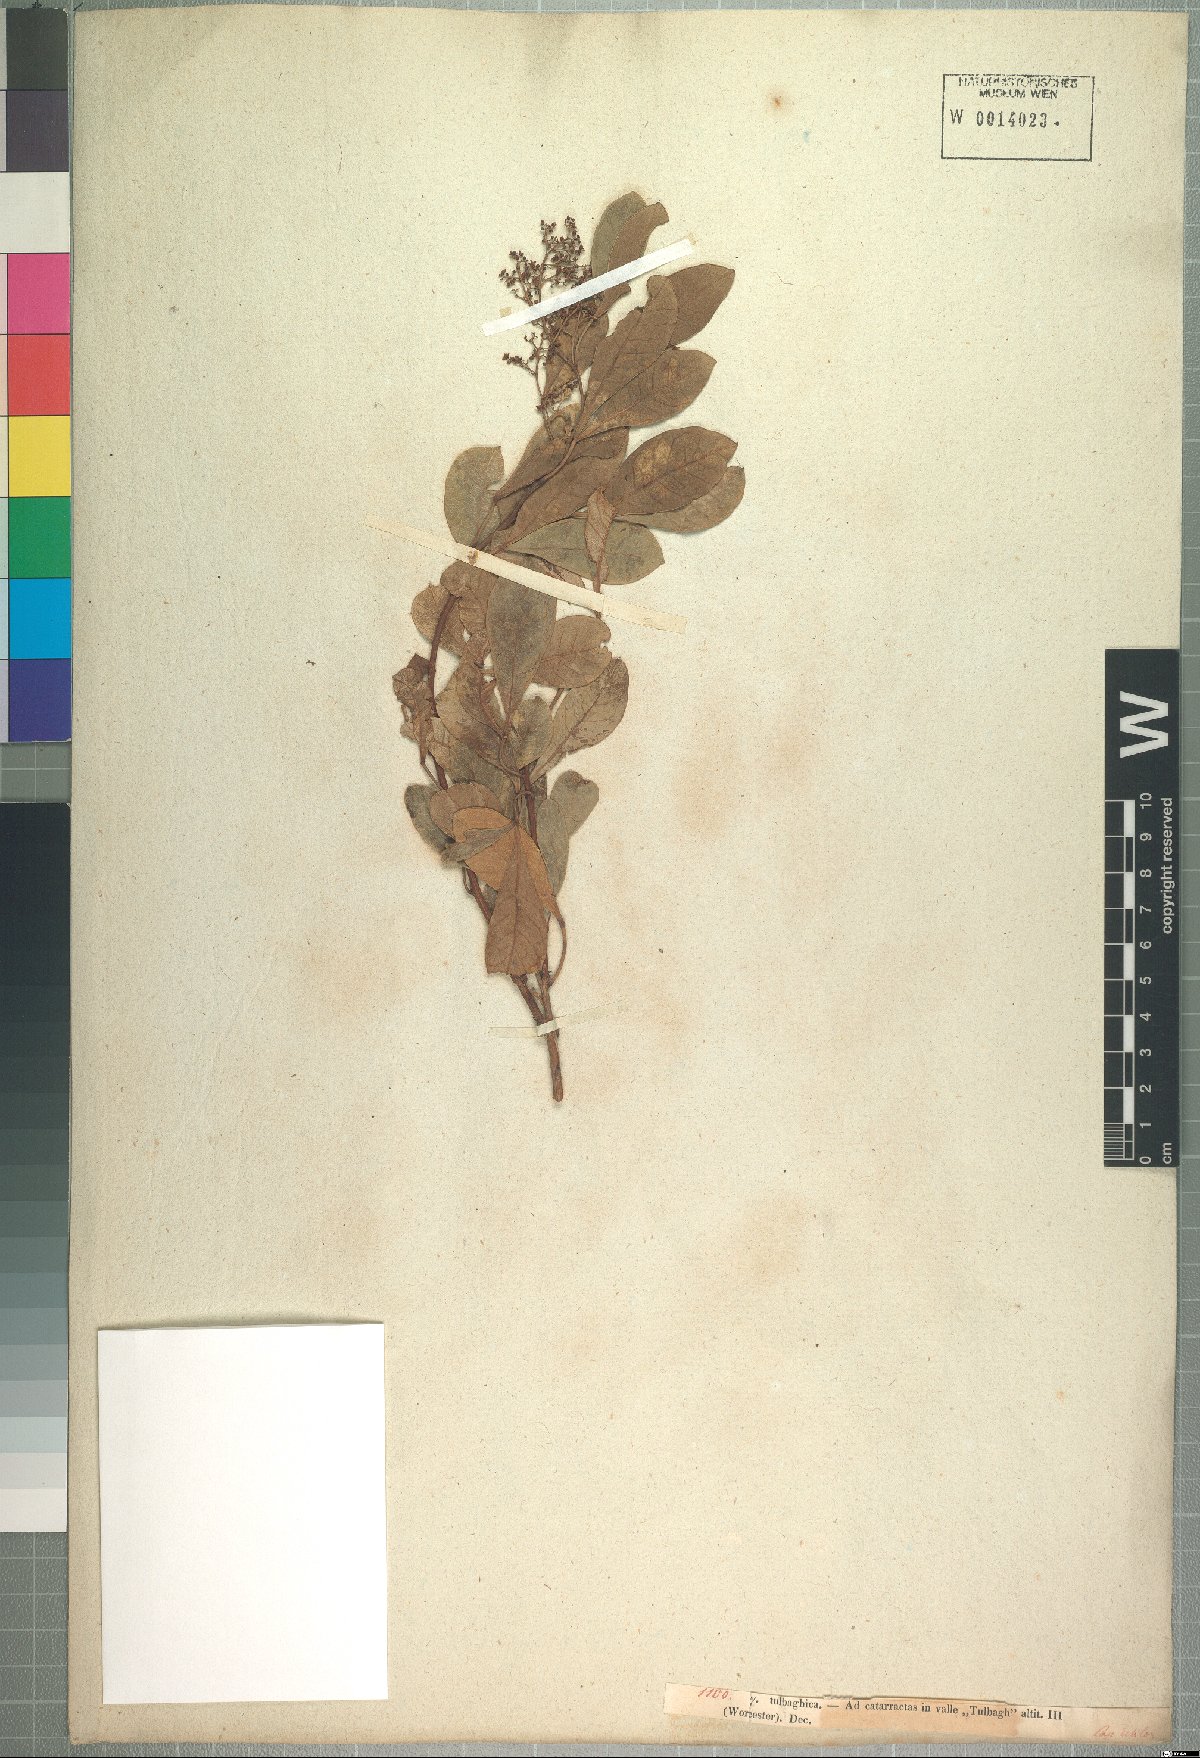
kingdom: Plantae
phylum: Tracheophyta
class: Magnoliopsida
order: Sapindales
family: Anacardiaceae
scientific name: Anacardiaceae
